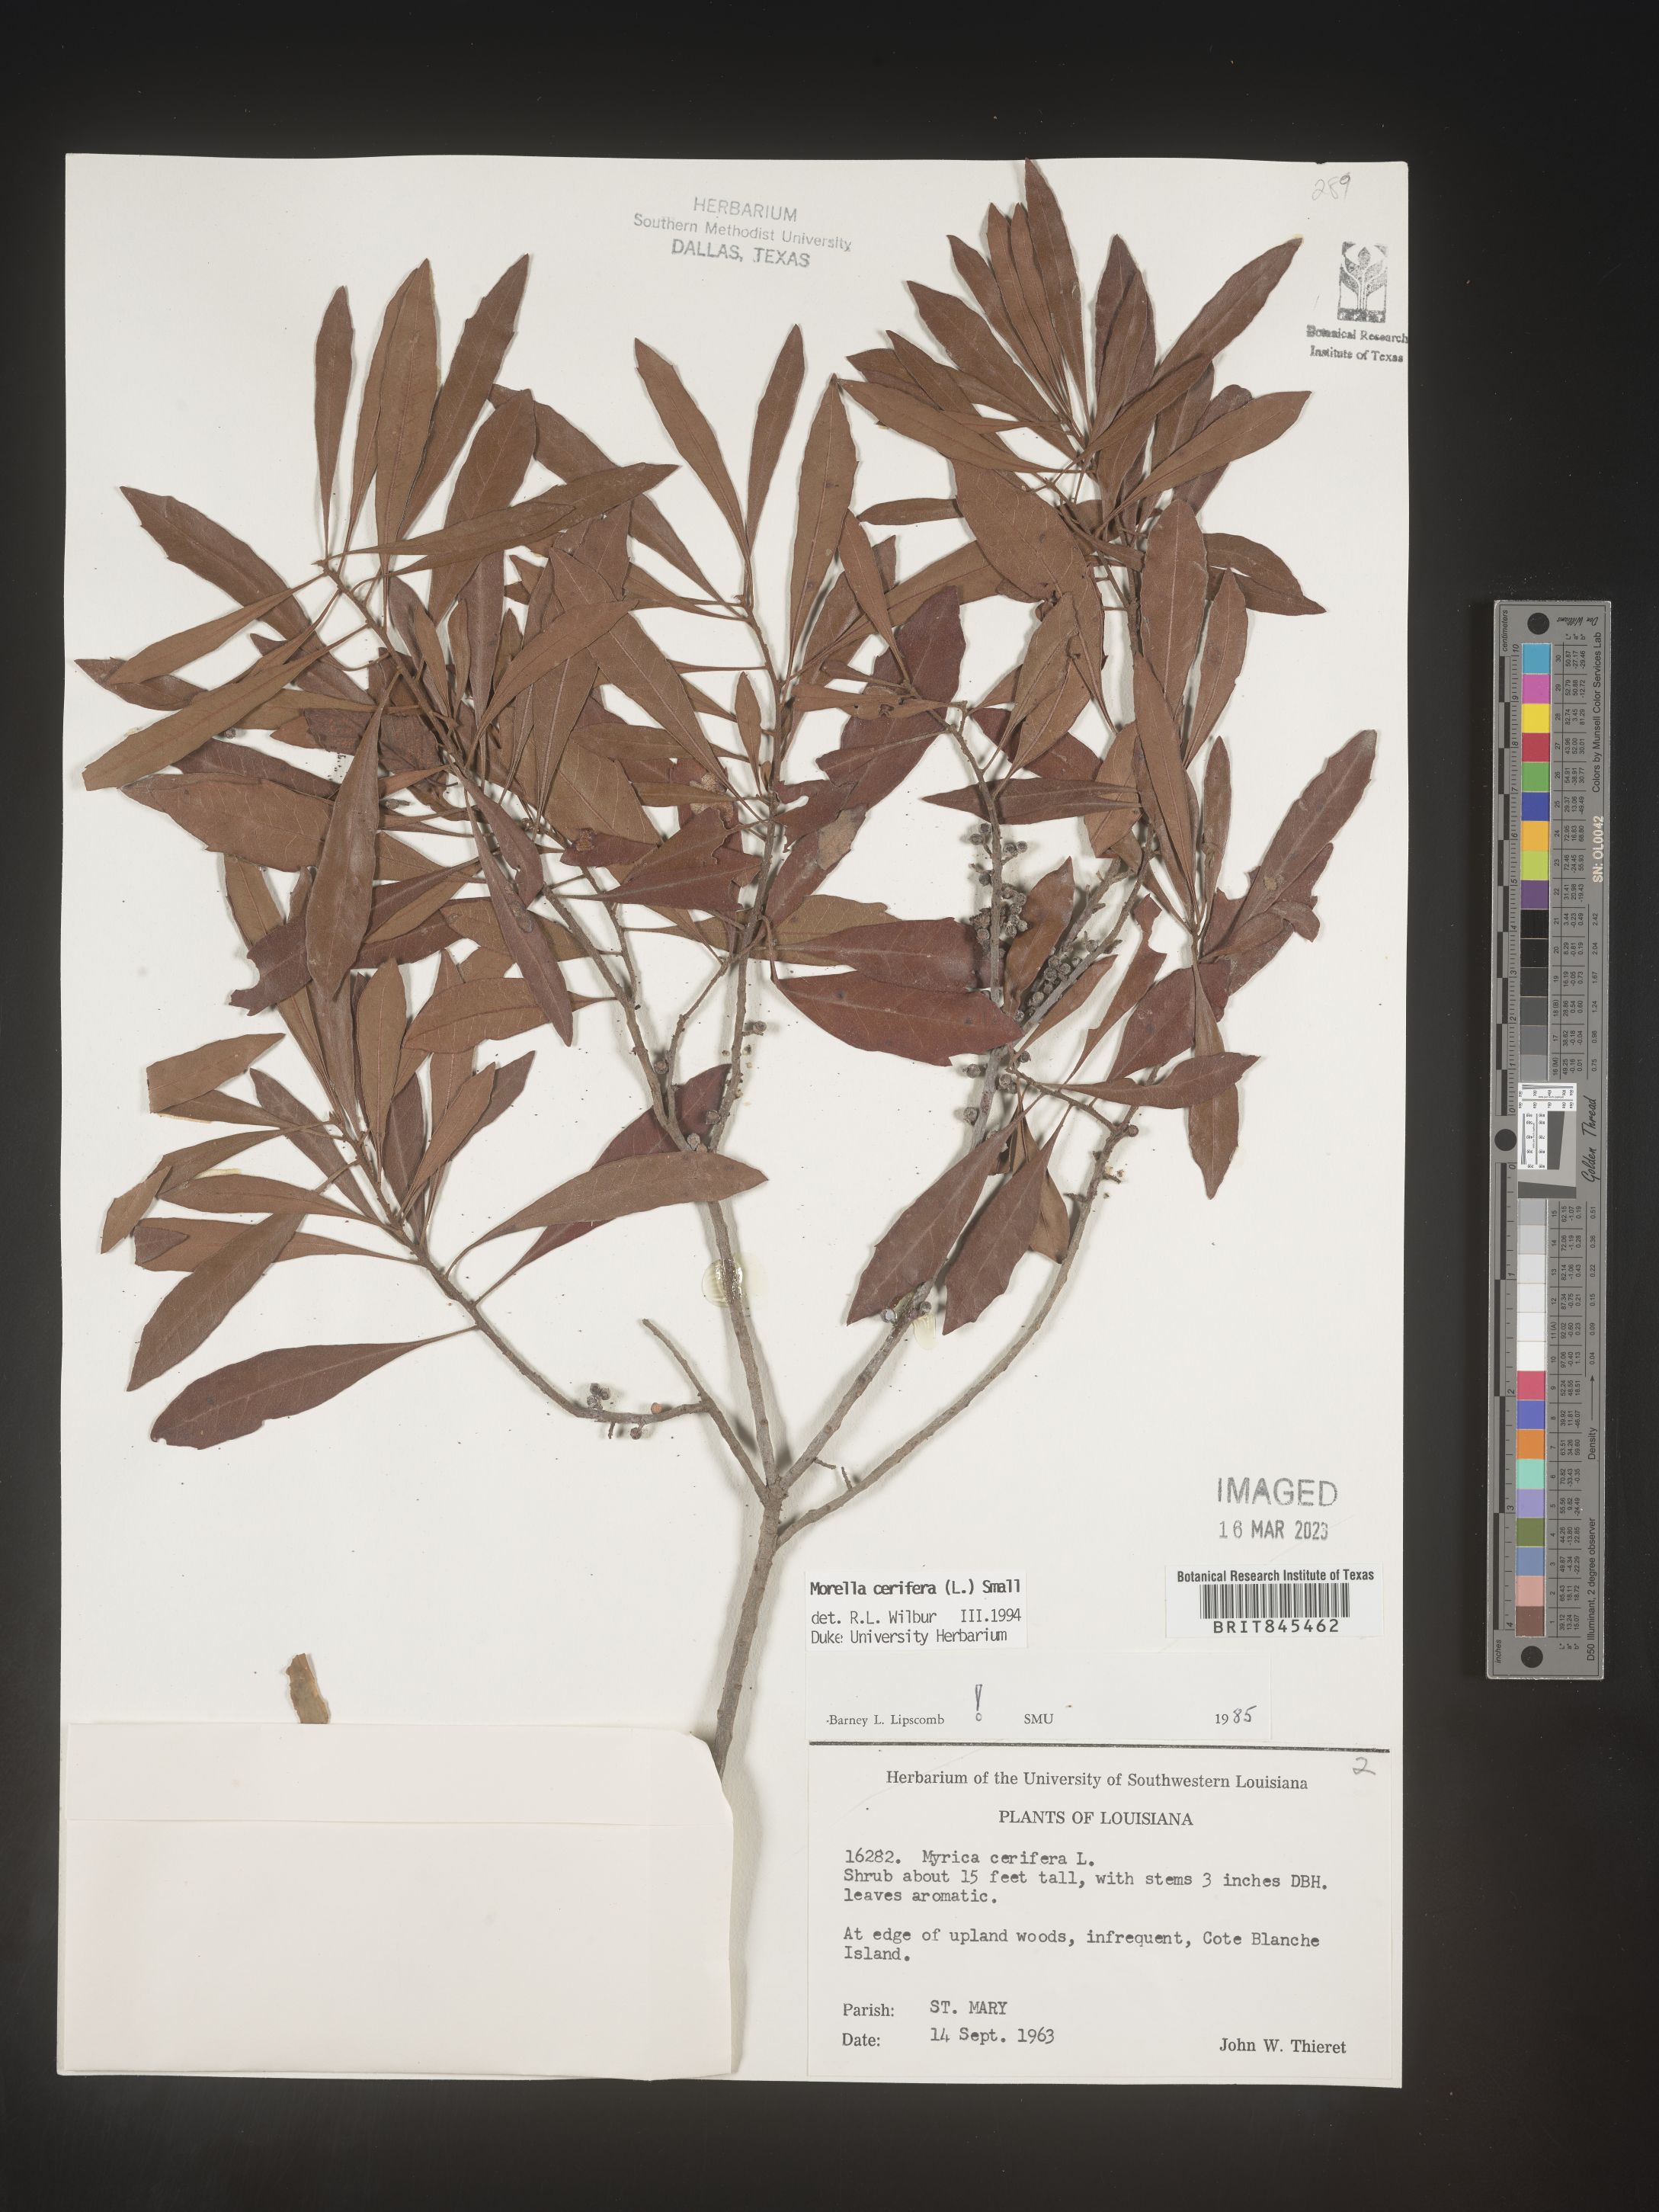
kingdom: Plantae
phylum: Tracheophyta
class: Magnoliopsida
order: Fagales
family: Myricaceae
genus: Morella
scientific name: Morella cerifera
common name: Wax myrtle
